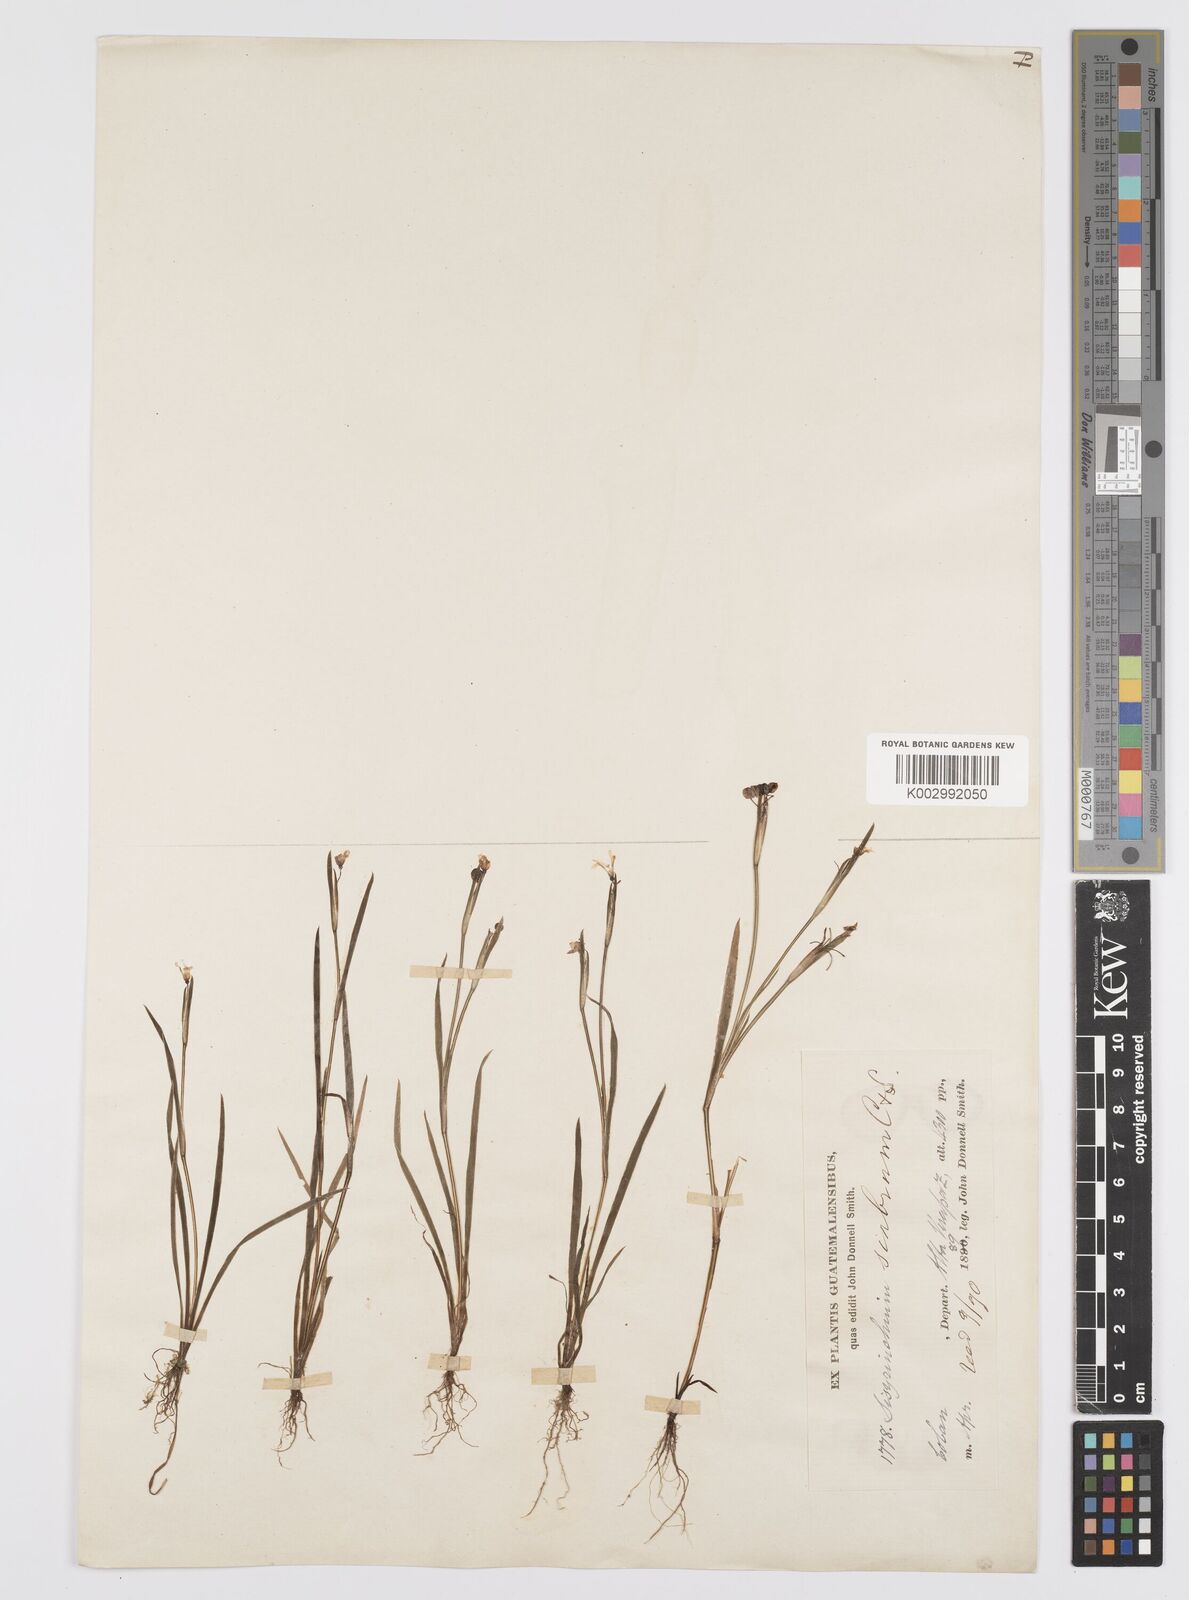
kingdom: Plantae
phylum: Tracheophyta
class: Liliopsida
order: Asparagales
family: Iridaceae
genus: Sisyrinchium
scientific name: Sisyrinchium scabrum
